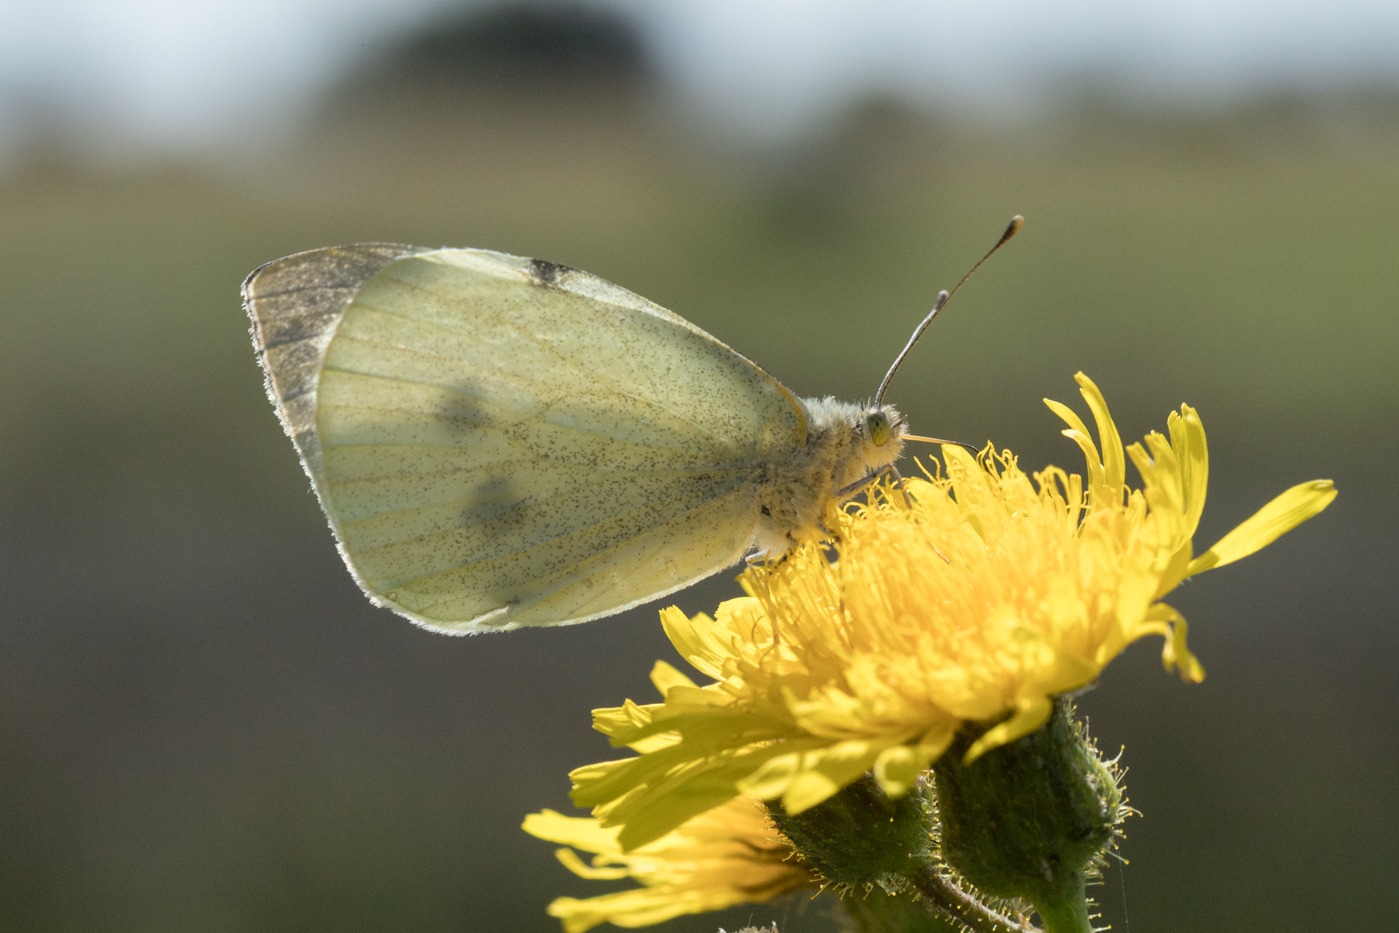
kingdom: Animalia
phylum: Arthropoda
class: Insecta
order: Lepidoptera
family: Pieridae
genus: Pieris
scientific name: Pieris brassicae
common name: Stor kålsommerfugl
